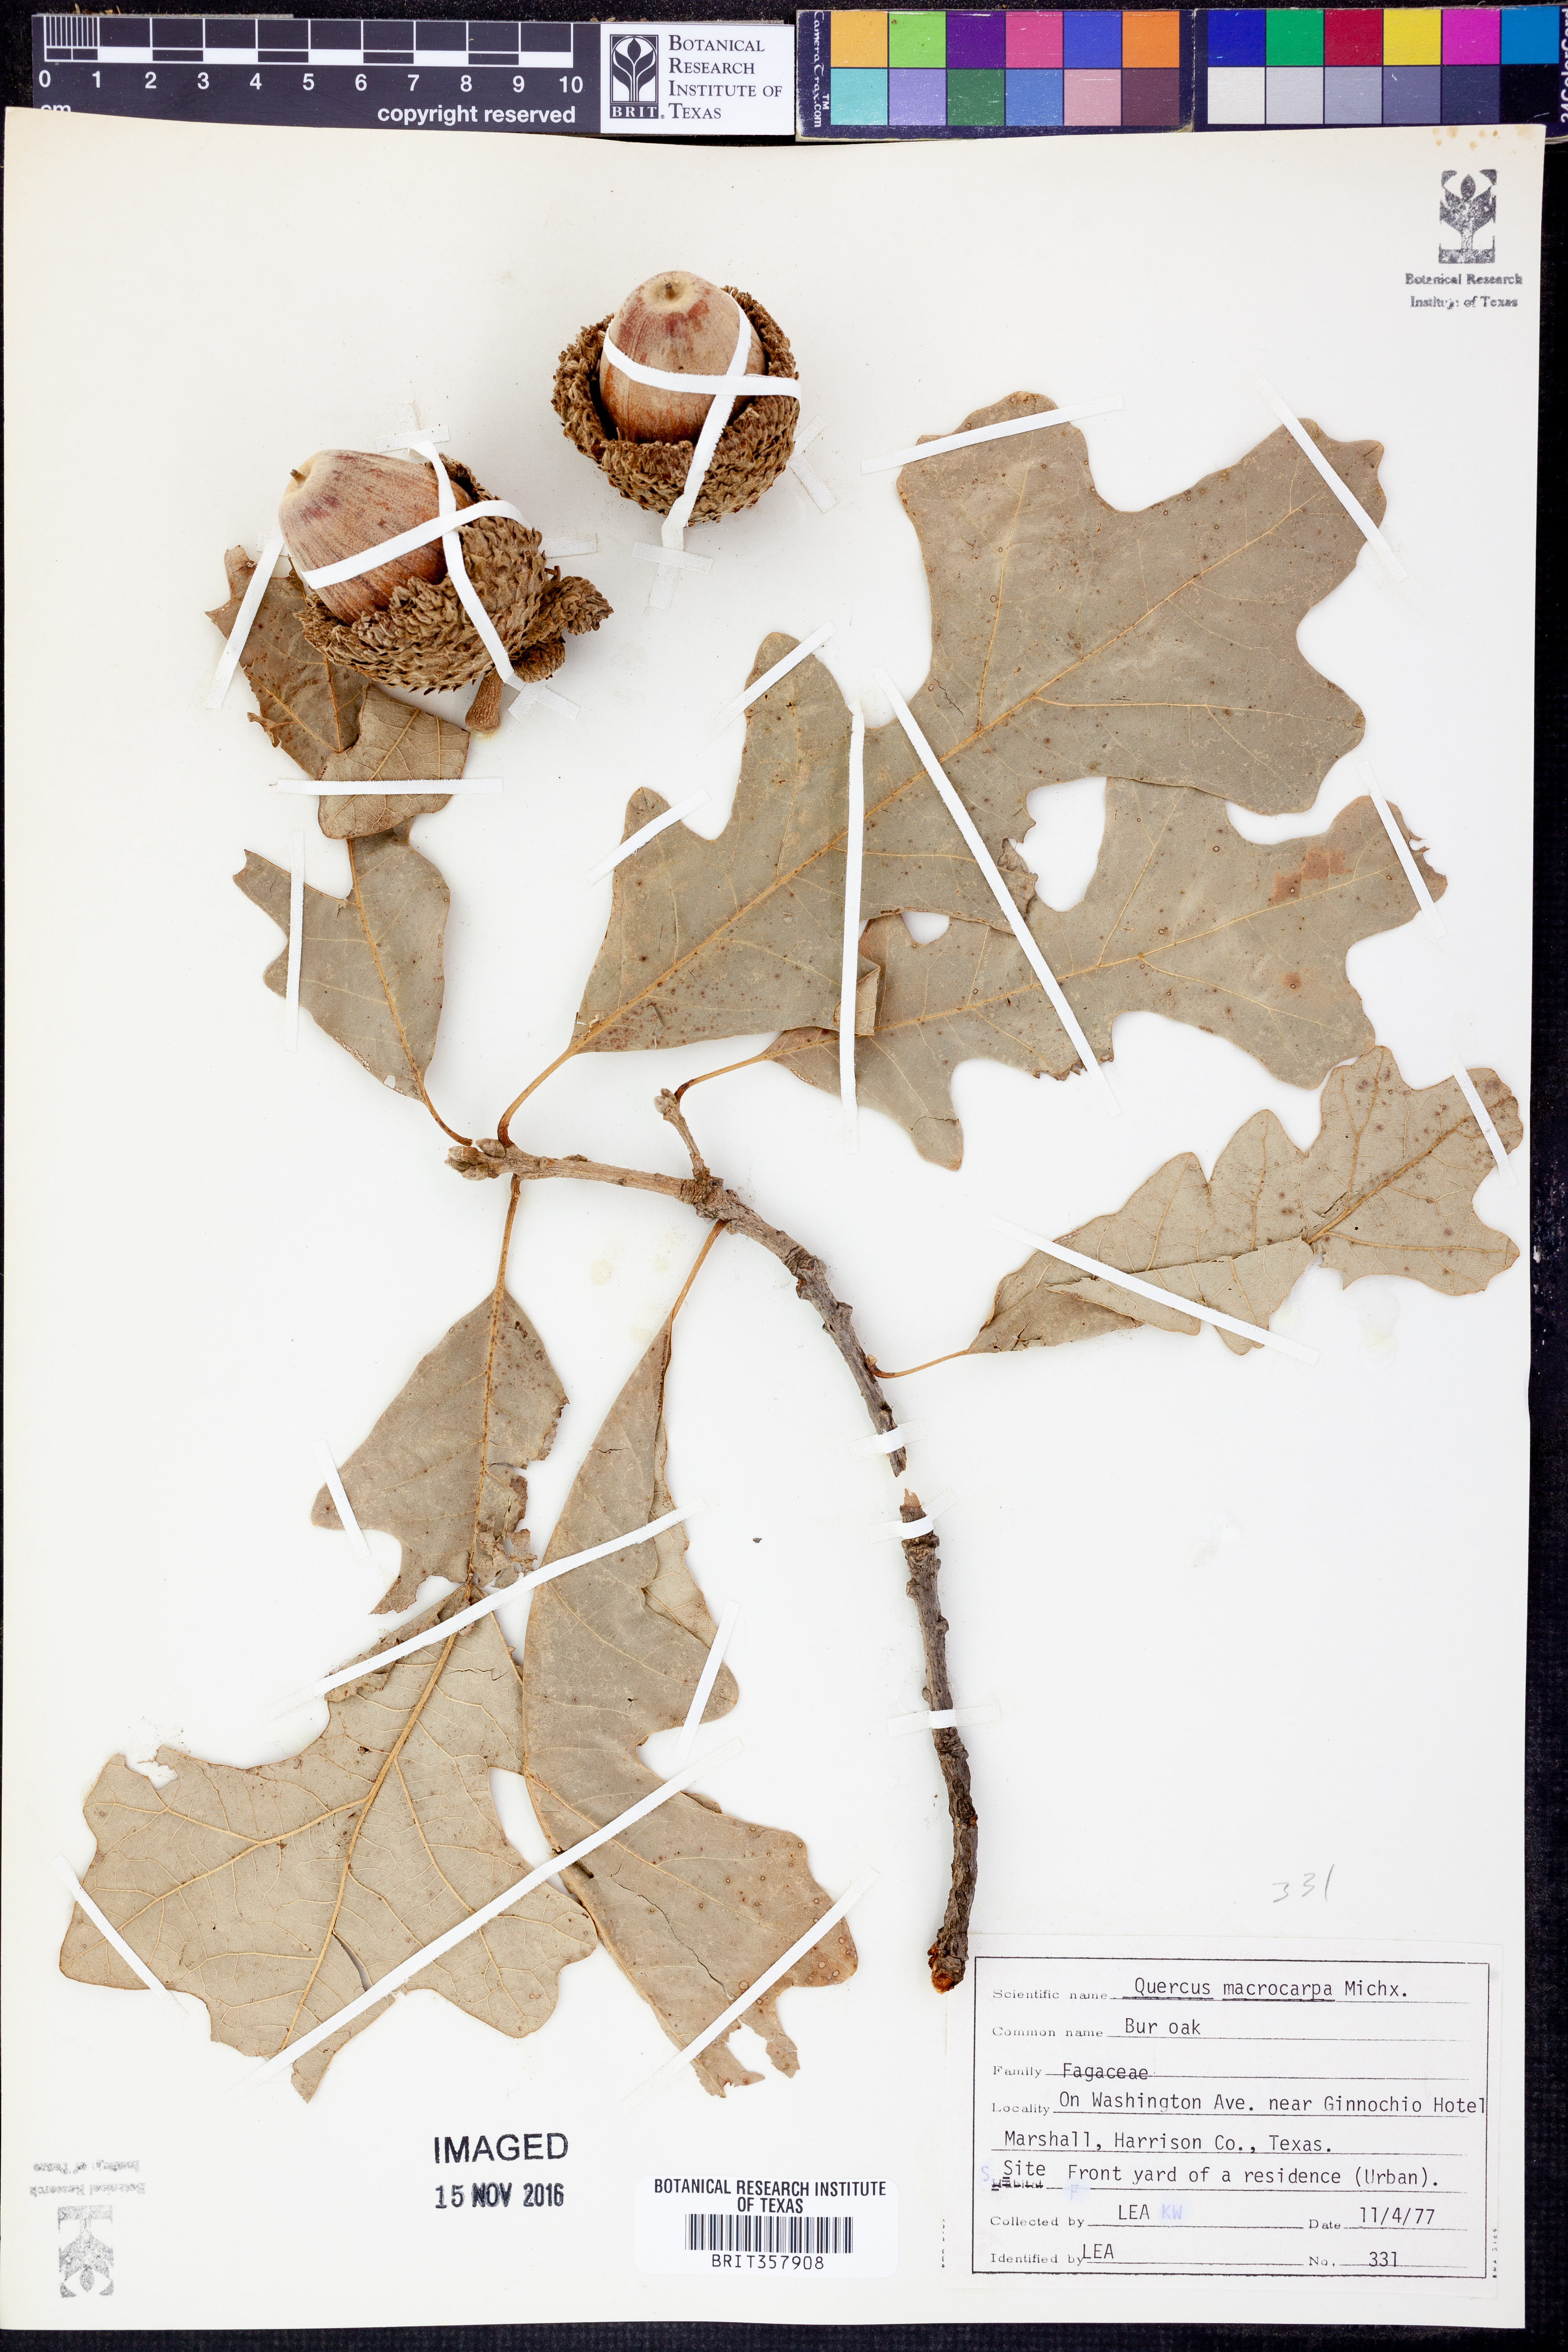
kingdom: Plantae
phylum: Tracheophyta
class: Magnoliopsida
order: Fagales
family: Fagaceae
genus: Quercus
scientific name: Quercus macrocarpa
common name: Bur oak
